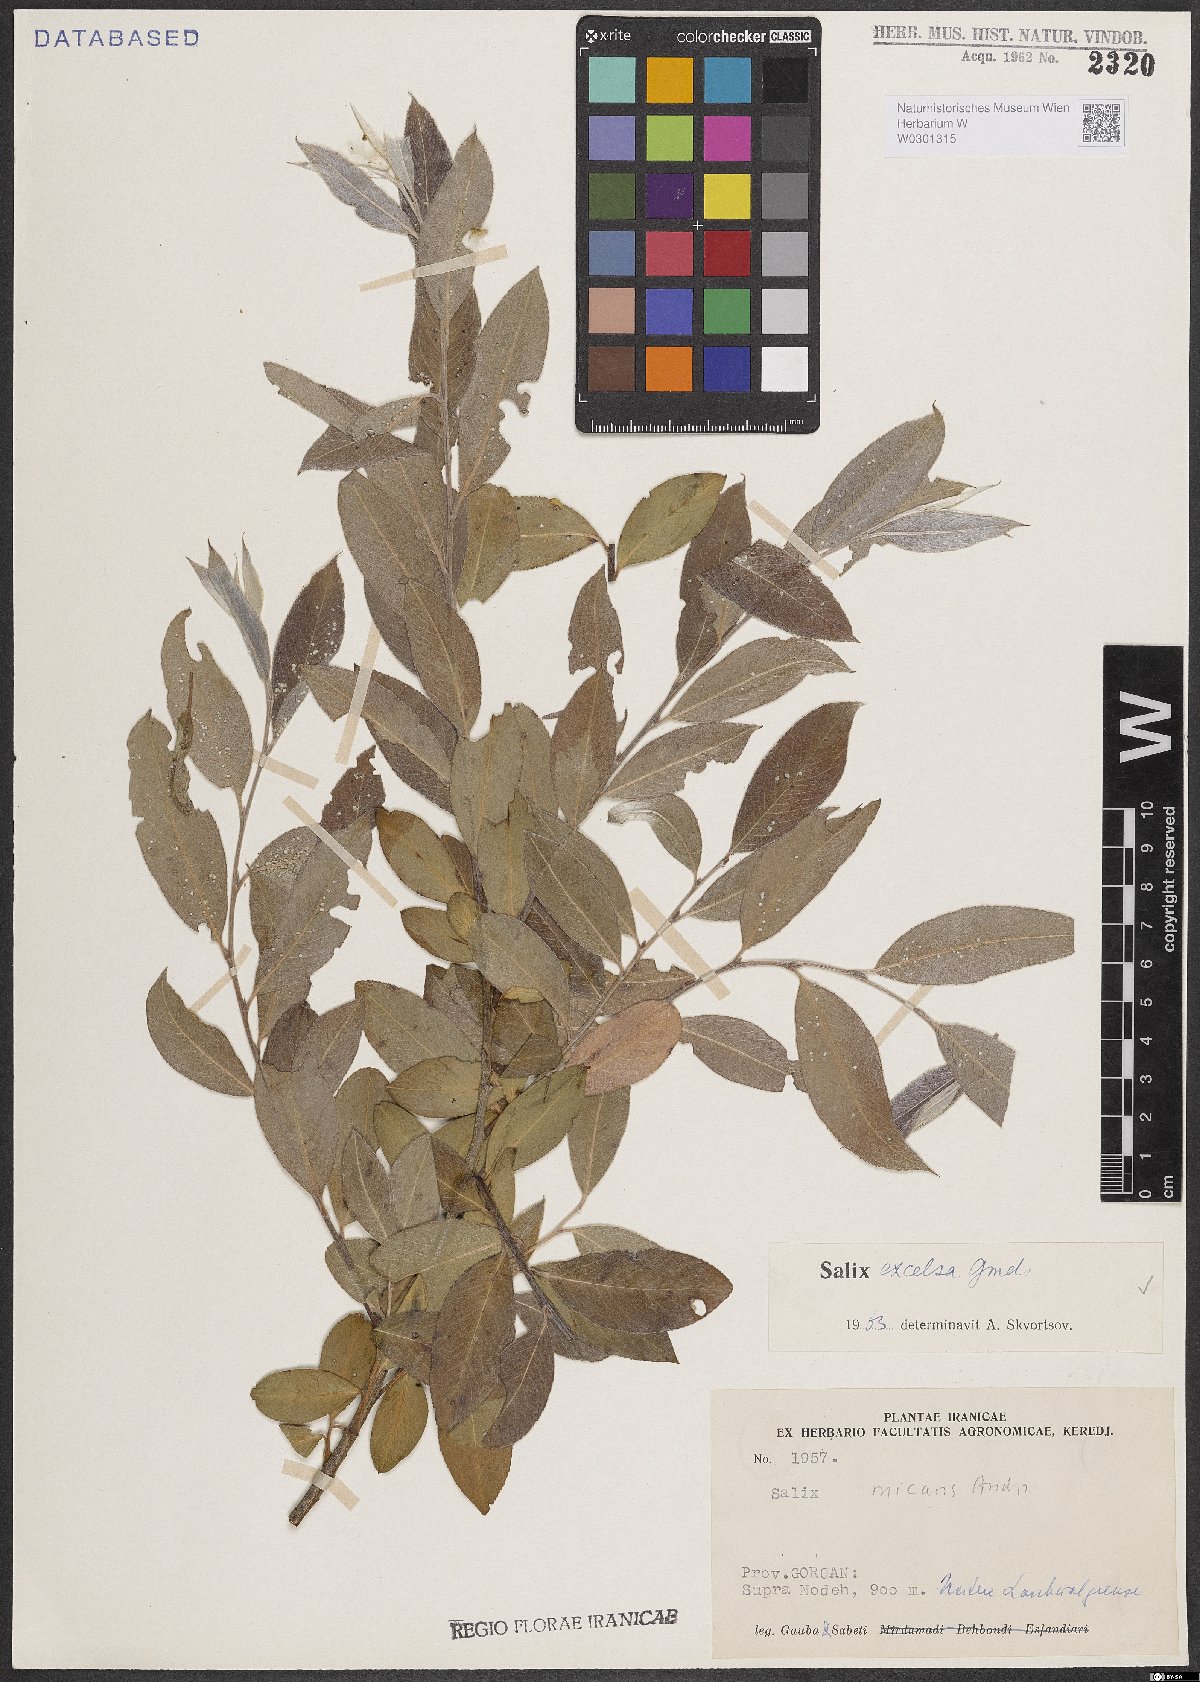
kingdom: Plantae
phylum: Tracheophyta
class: Magnoliopsida
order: Malpighiales
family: Salicaceae
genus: Salix
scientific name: Salix excelsa
